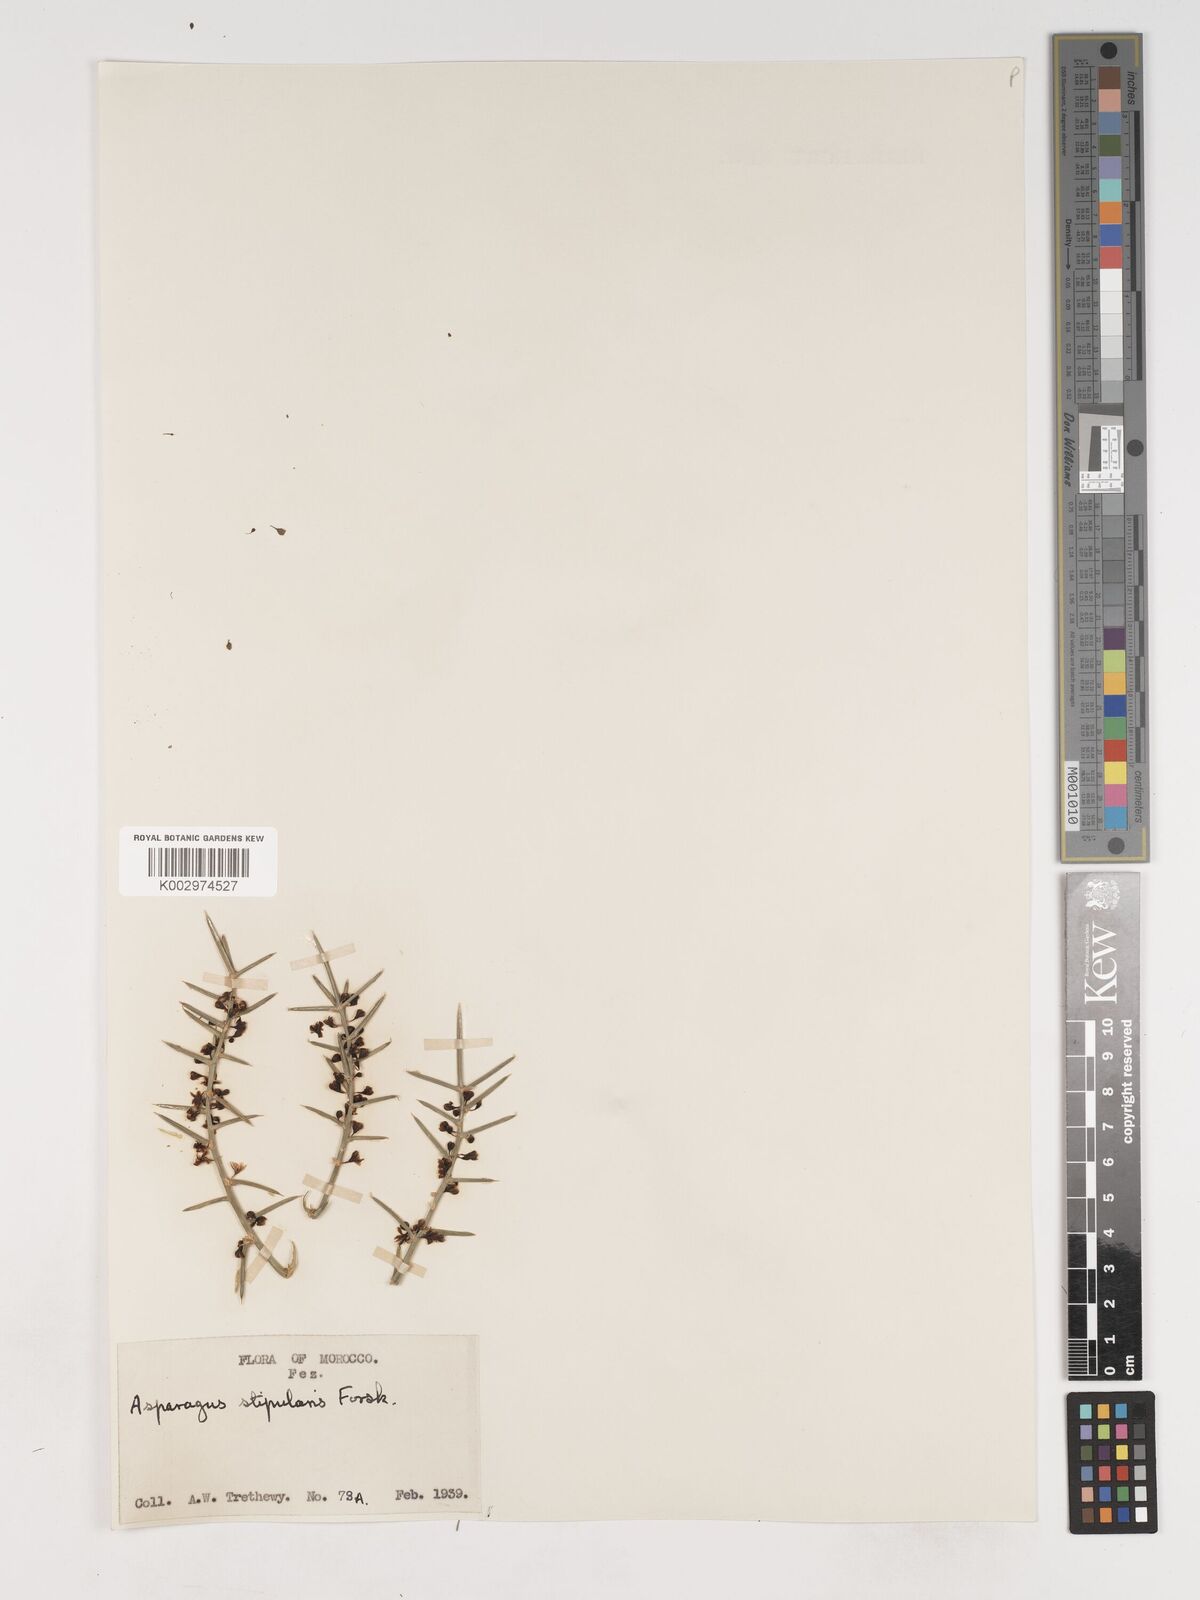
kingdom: Plantae
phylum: Tracheophyta
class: Liliopsida
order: Asparagales
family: Asparagaceae
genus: Asparagus
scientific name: Asparagus horridus
